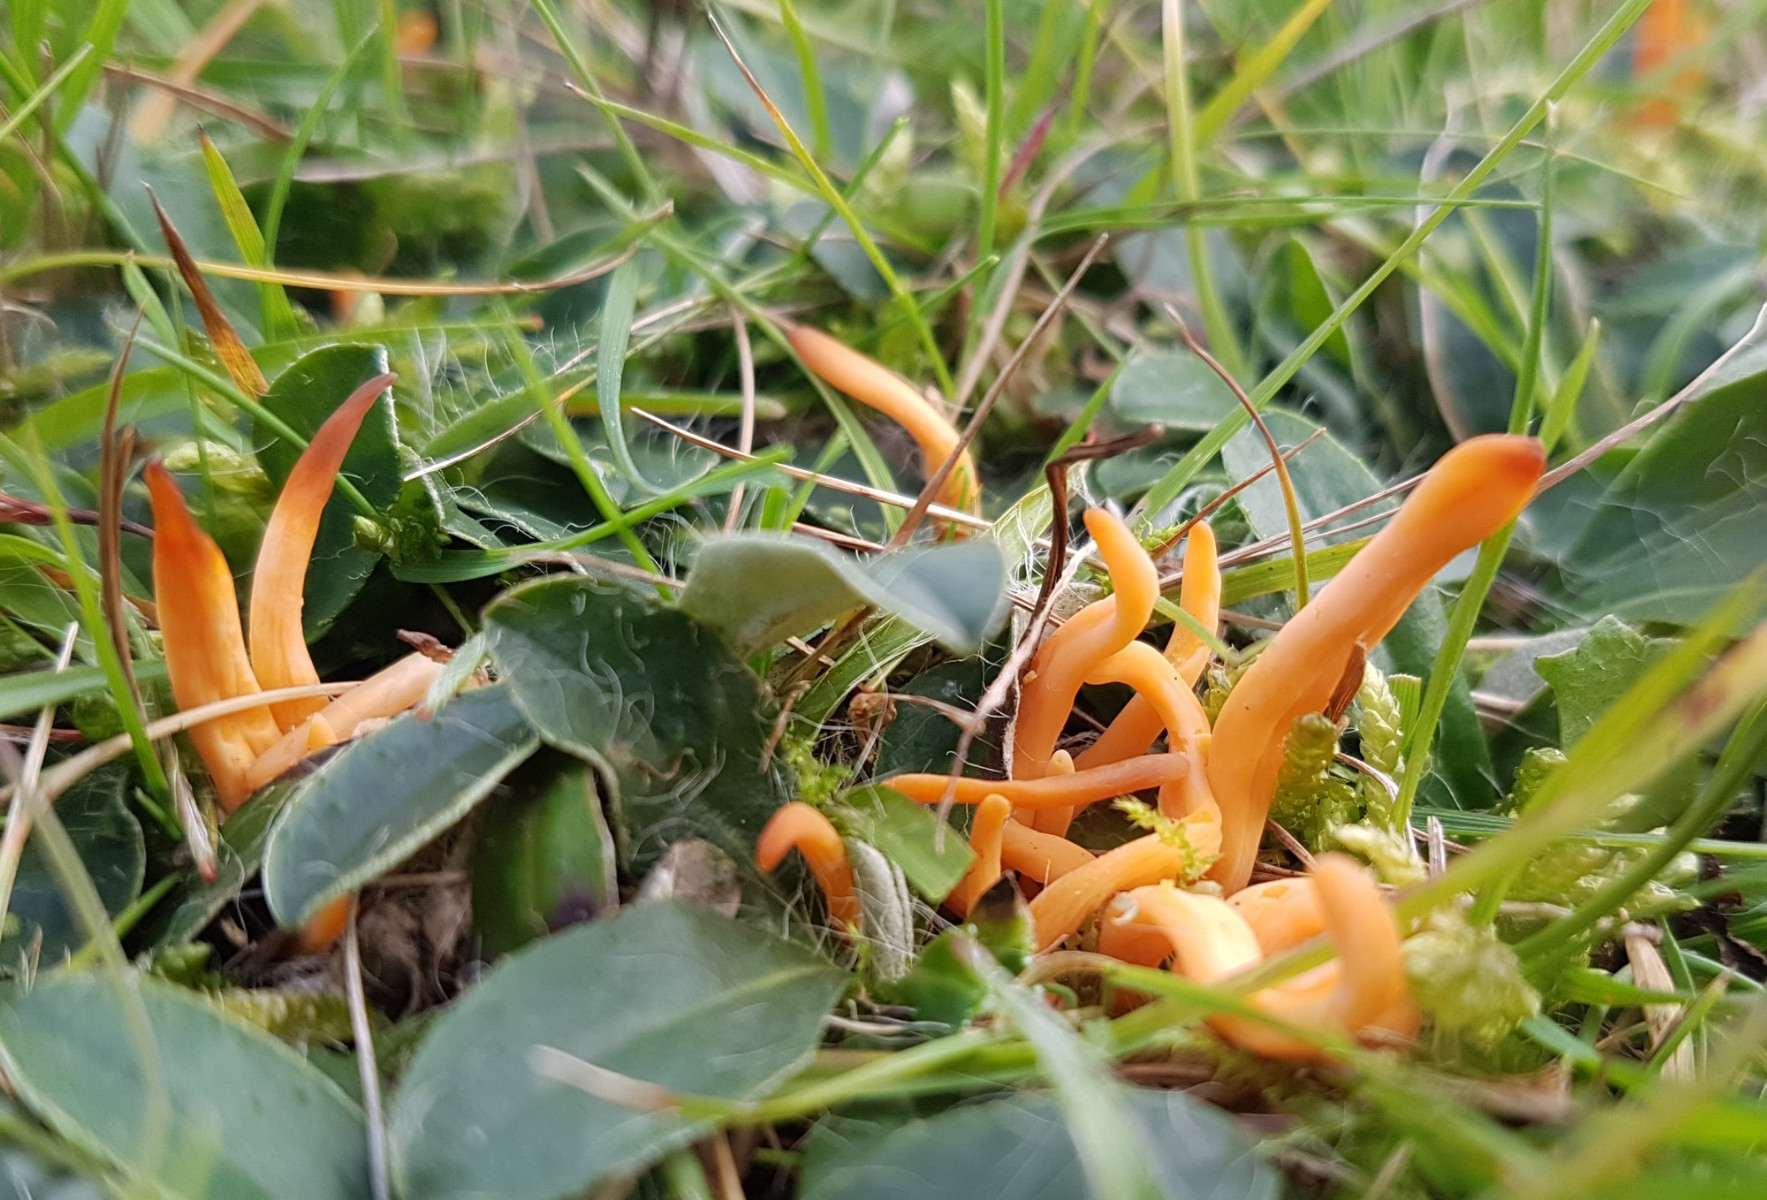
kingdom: Fungi
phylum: Basidiomycota
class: Agaricomycetes
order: Agaricales
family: Clavariaceae
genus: Clavulinopsis
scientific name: Clavulinopsis luteoalba
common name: abrikos-køllesvamp
